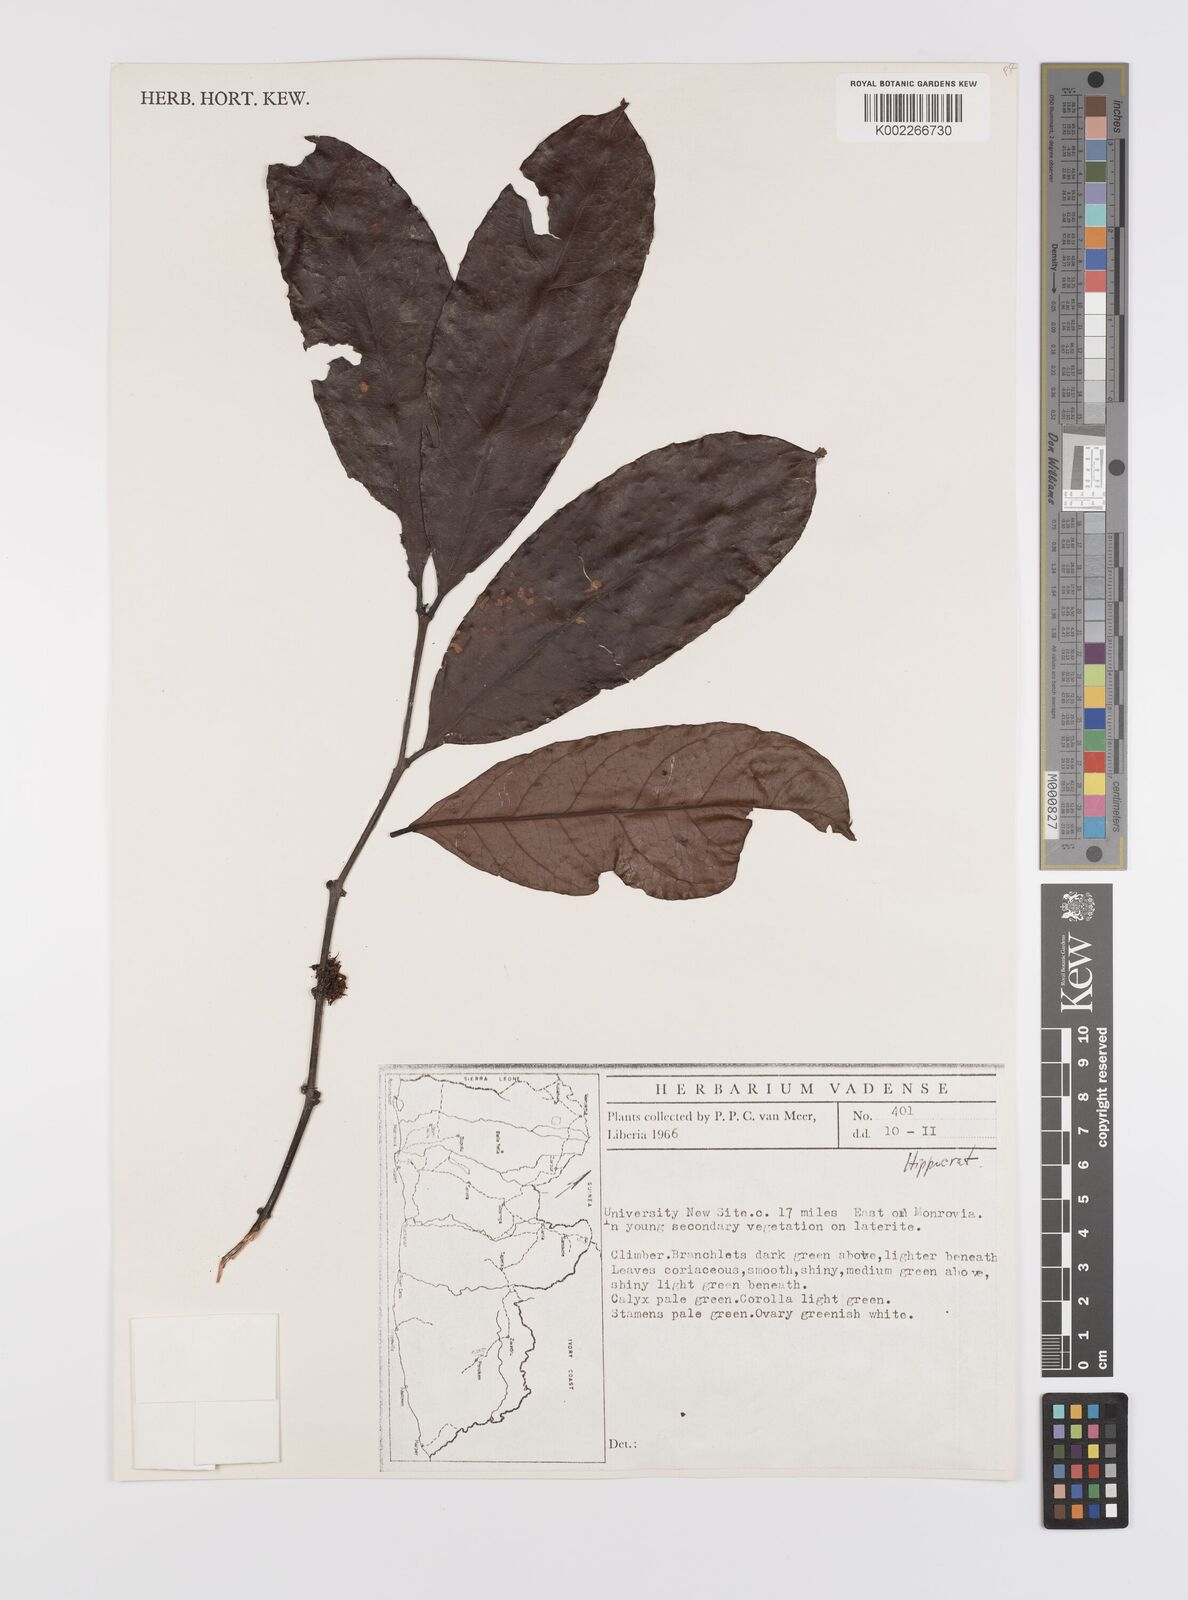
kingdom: Plantae
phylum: Tracheophyta
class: Magnoliopsida
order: Celastrales
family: Celastraceae
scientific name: Celastraceae
